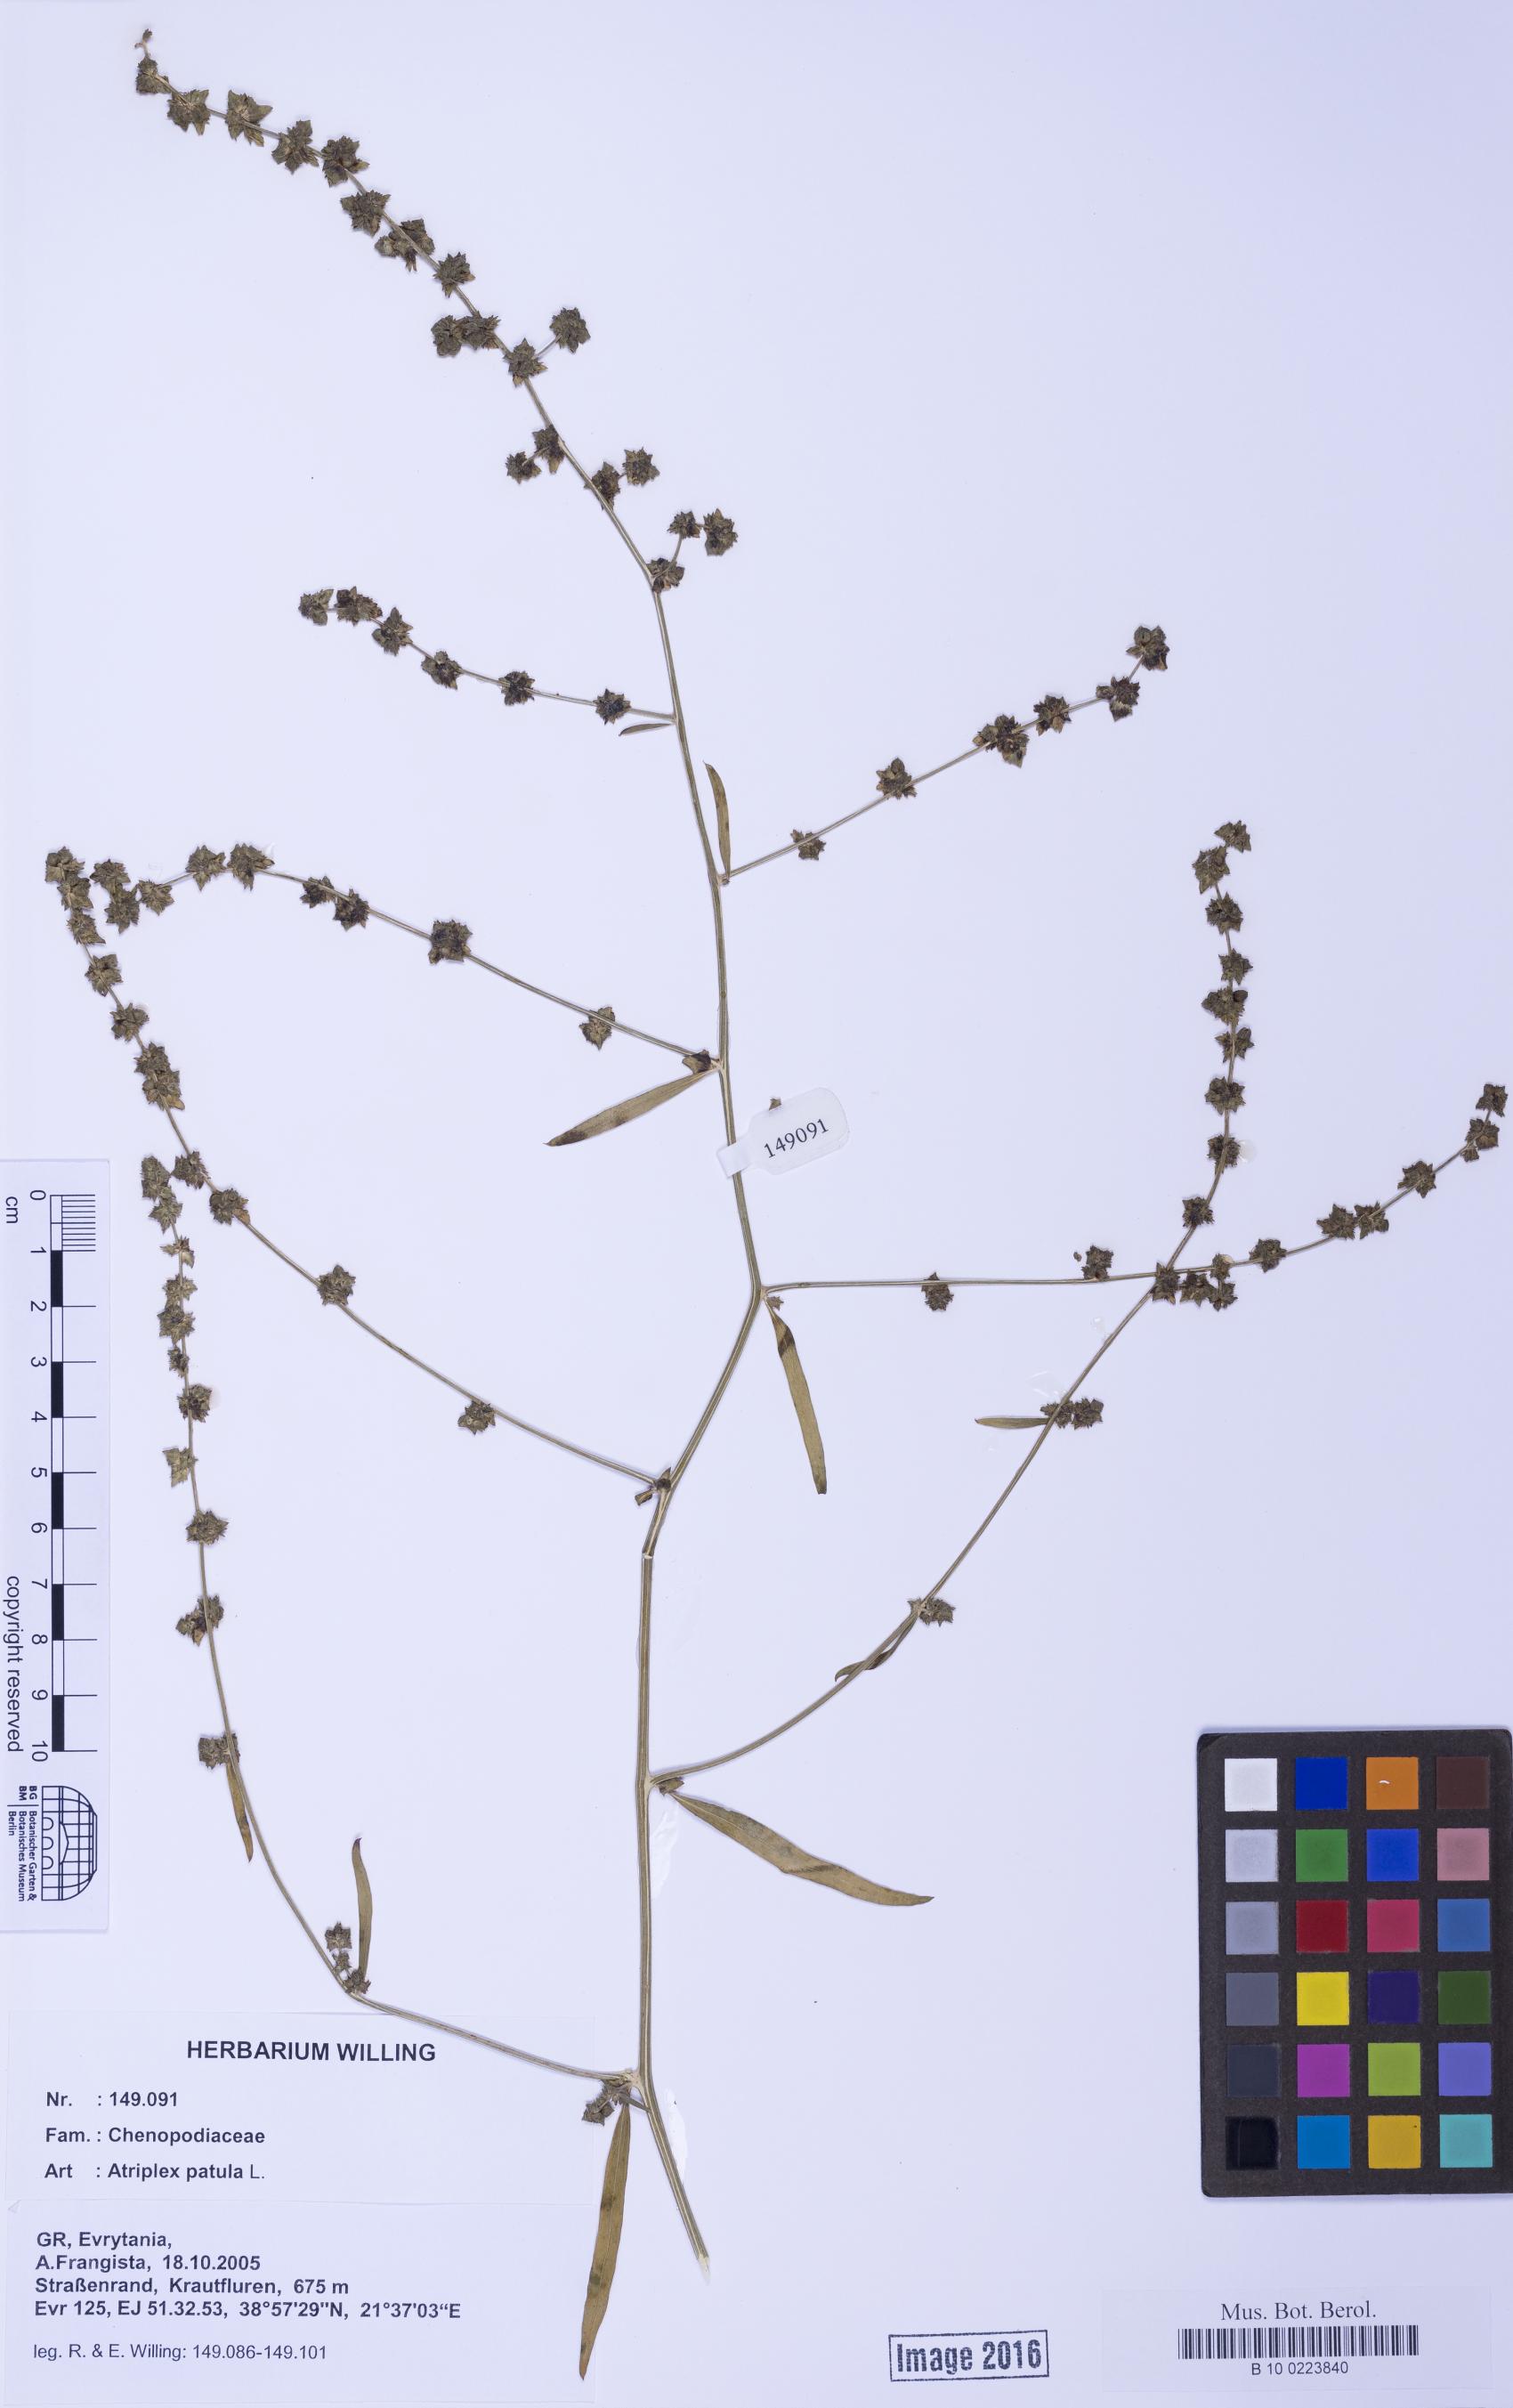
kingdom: Plantae
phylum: Tracheophyta
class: Magnoliopsida
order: Caryophyllales
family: Amaranthaceae
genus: Atriplex
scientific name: Atriplex patula
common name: Common orache
